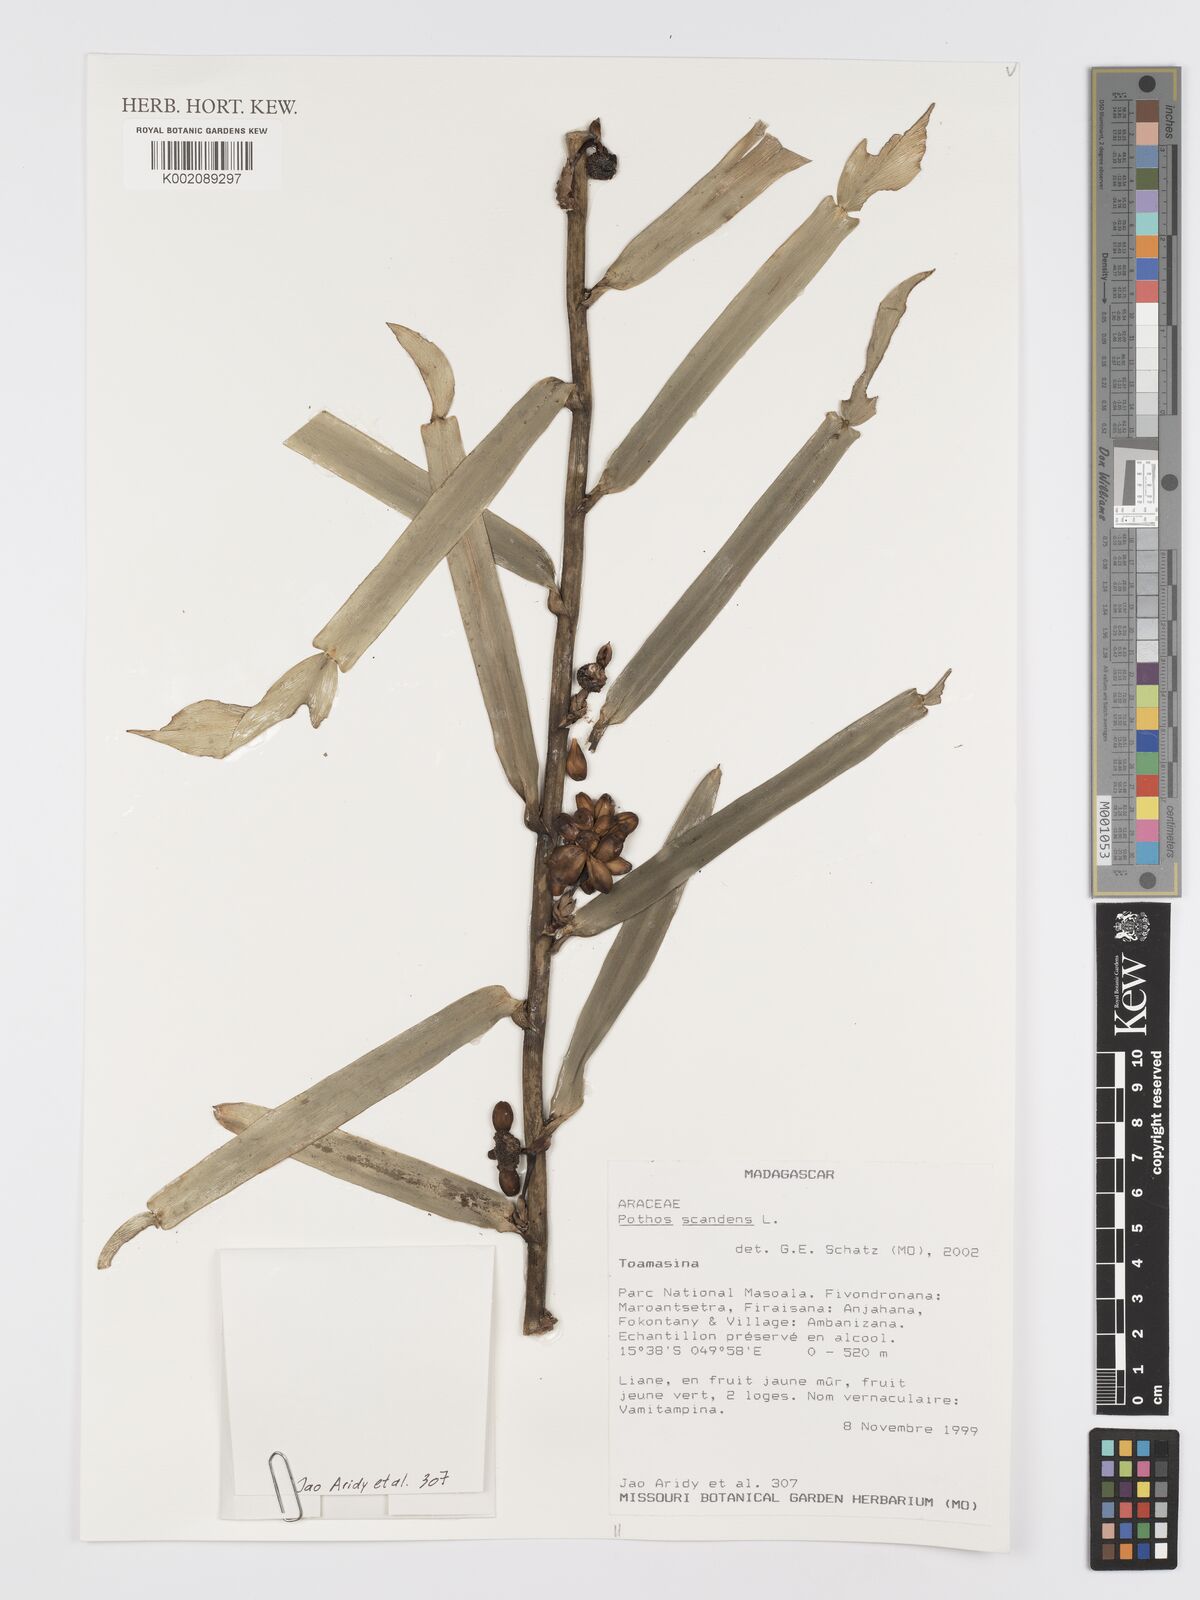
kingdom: Plantae
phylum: Tracheophyta
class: Liliopsida
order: Alismatales
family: Araceae
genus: Pothos
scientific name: Pothos scandens
